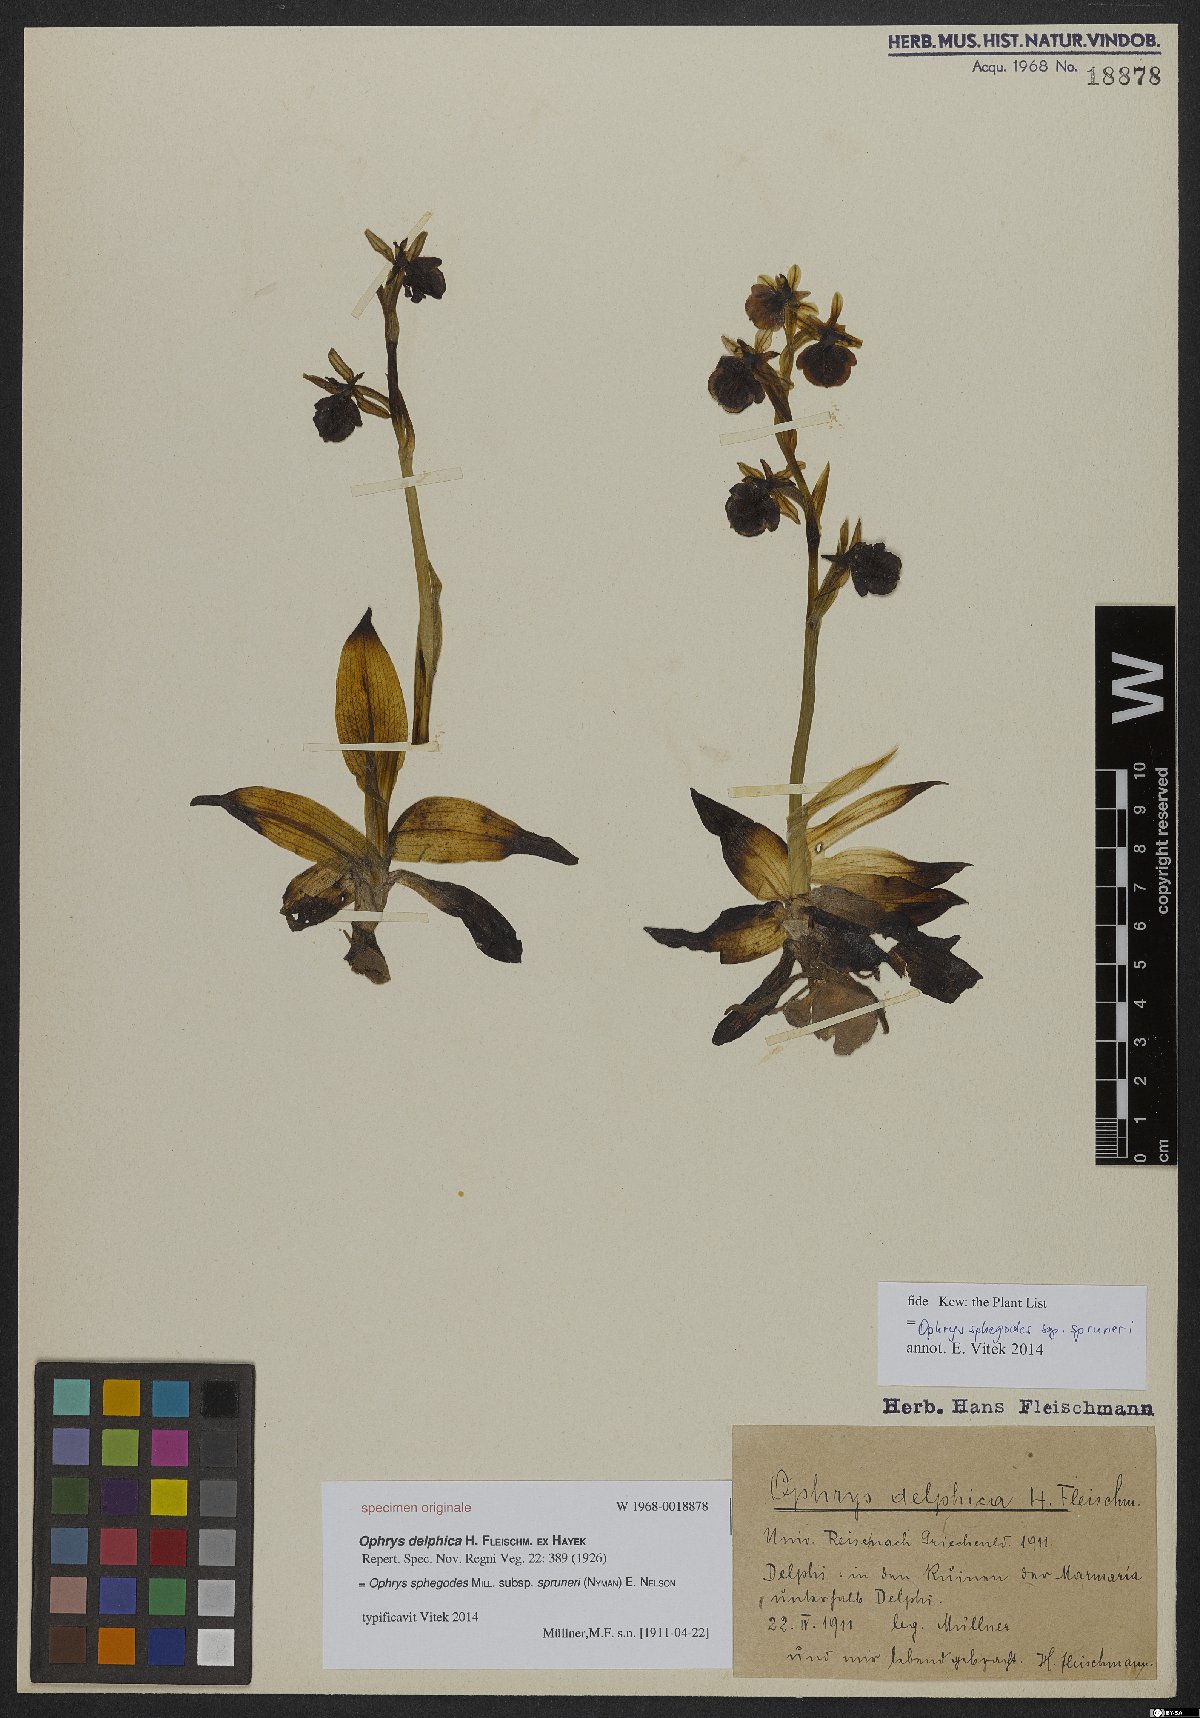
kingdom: Plantae
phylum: Tracheophyta
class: Liliopsida
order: Asparagales
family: Orchidaceae
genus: Ophrys
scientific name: Ophrys sphegodes
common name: Early spider-orchid
